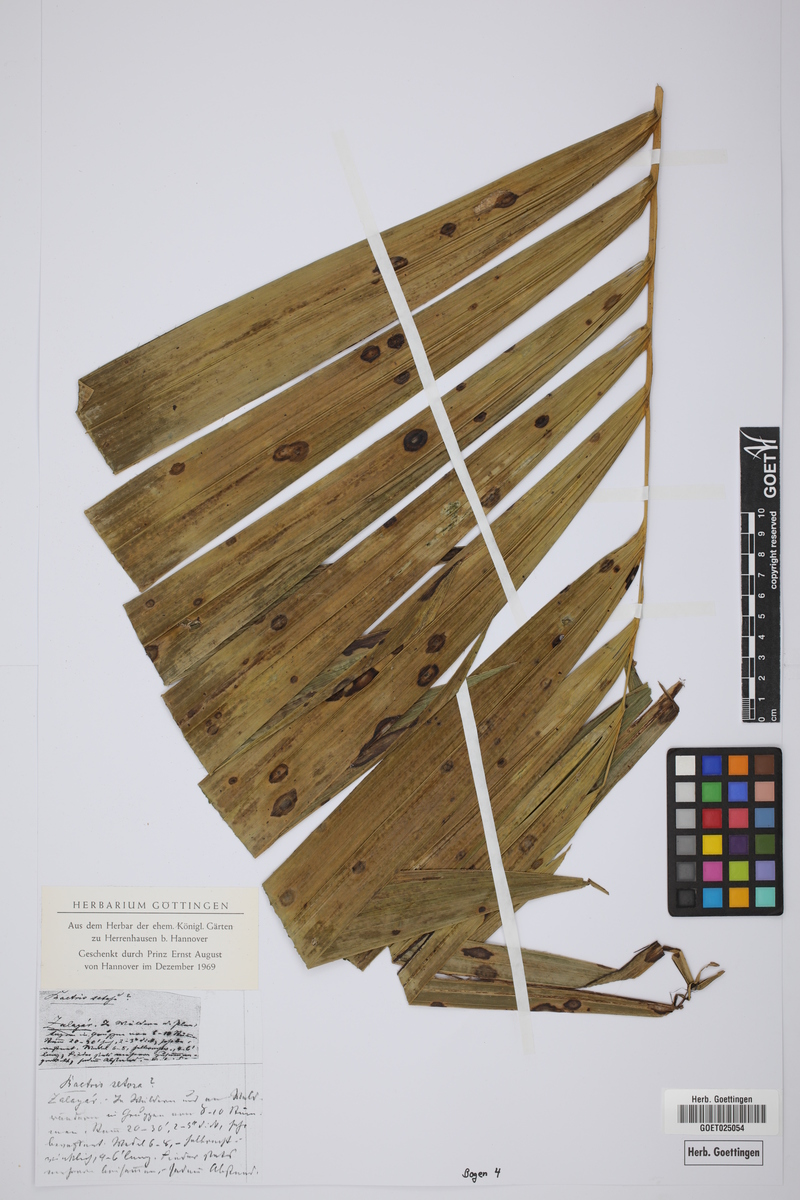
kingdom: Plantae
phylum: Tracheophyta
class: Liliopsida
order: Arecales
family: Arecaceae
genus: Bactris
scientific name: Bactris setosa
